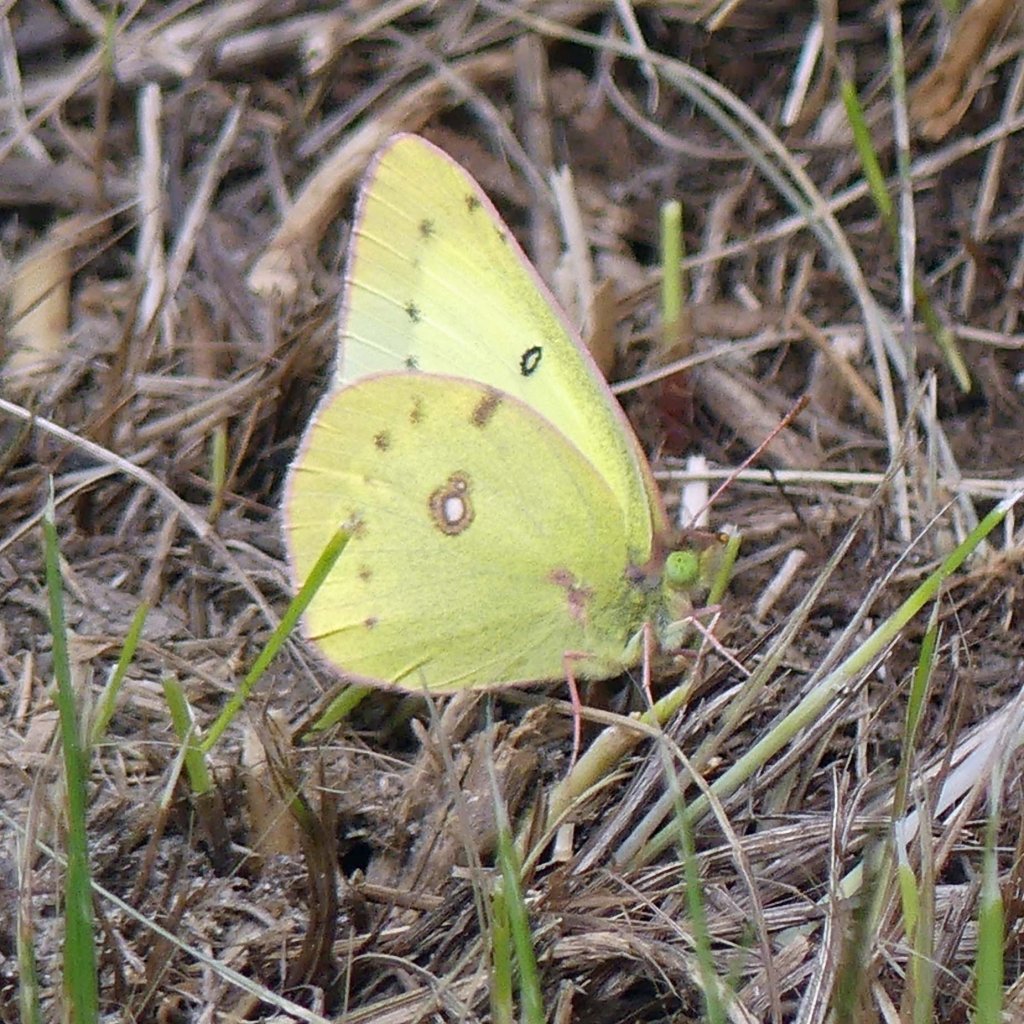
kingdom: Animalia
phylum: Arthropoda
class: Insecta
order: Lepidoptera
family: Pieridae
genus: Colias
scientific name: Colias philodice
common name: Clouded Sulphur
